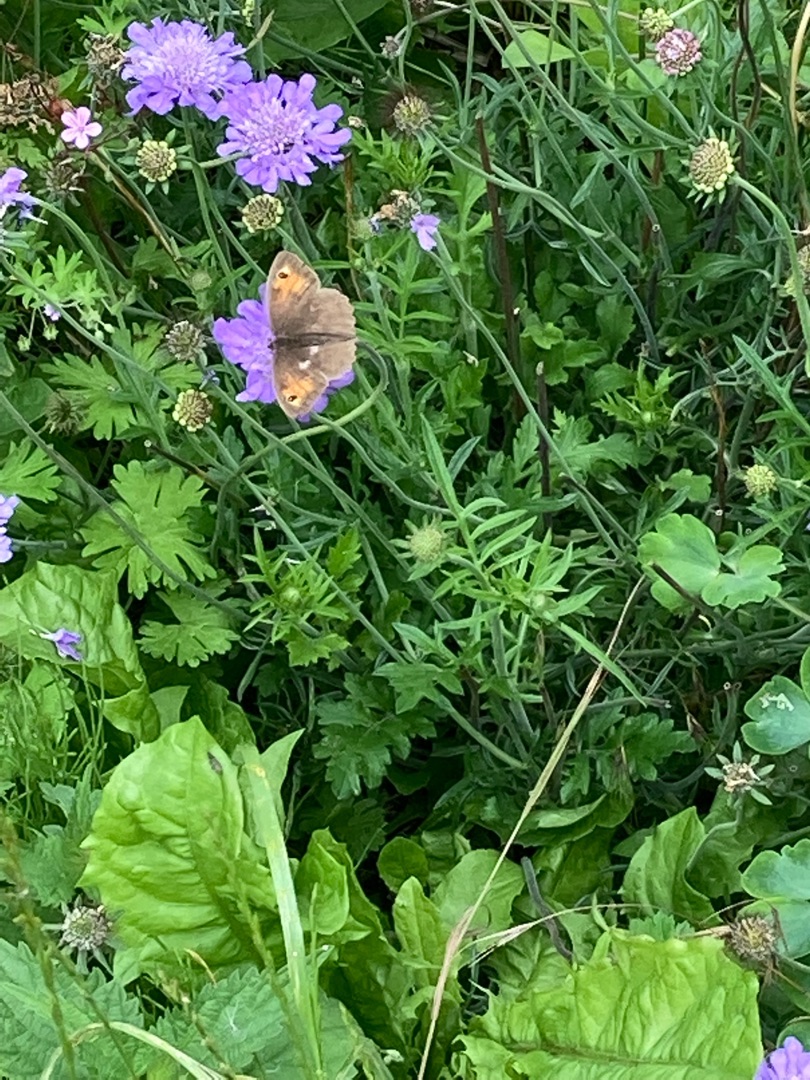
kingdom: Animalia
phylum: Arthropoda
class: Insecta
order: Lepidoptera
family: Nymphalidae
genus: Maniola
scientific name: Maniola jurtina
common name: Græsrandøje
